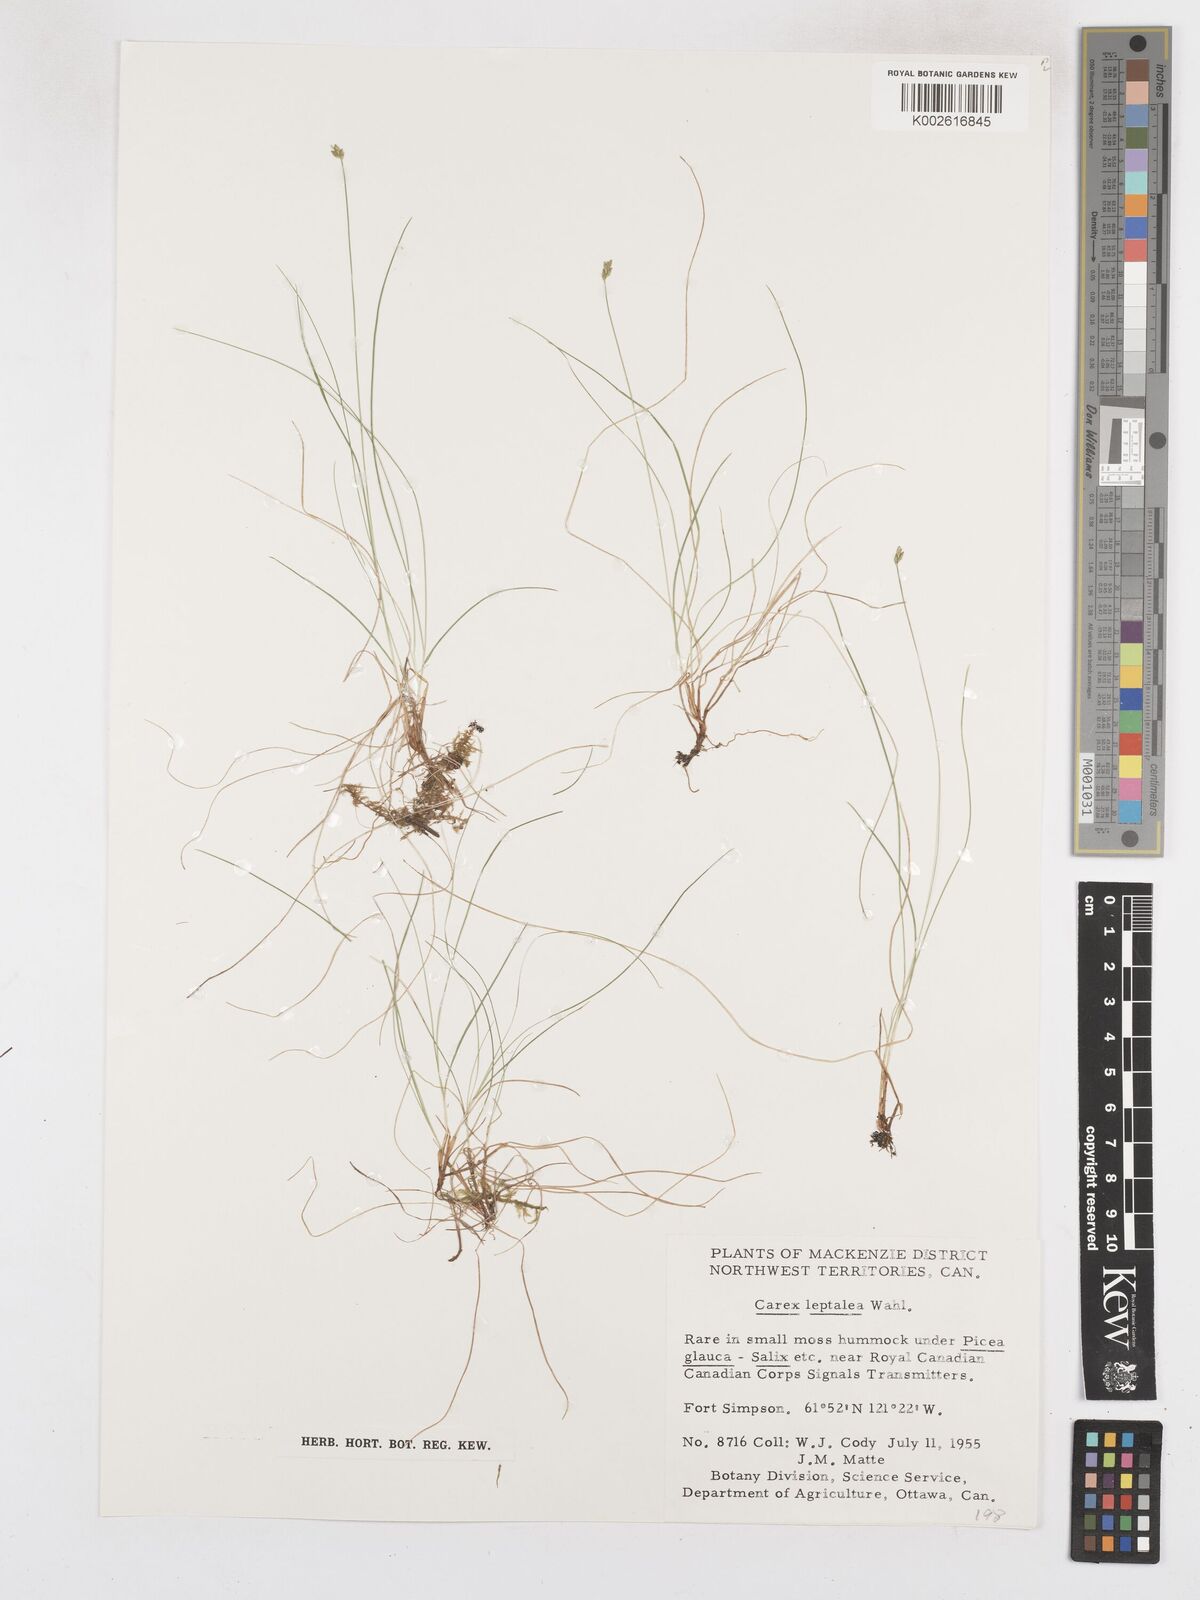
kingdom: Plantae
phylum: Tracheophyta
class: Liliopsida
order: Poales
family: Cyperaceae
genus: Carex
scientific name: Carex leptalea
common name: Bristly-stalked sedge
